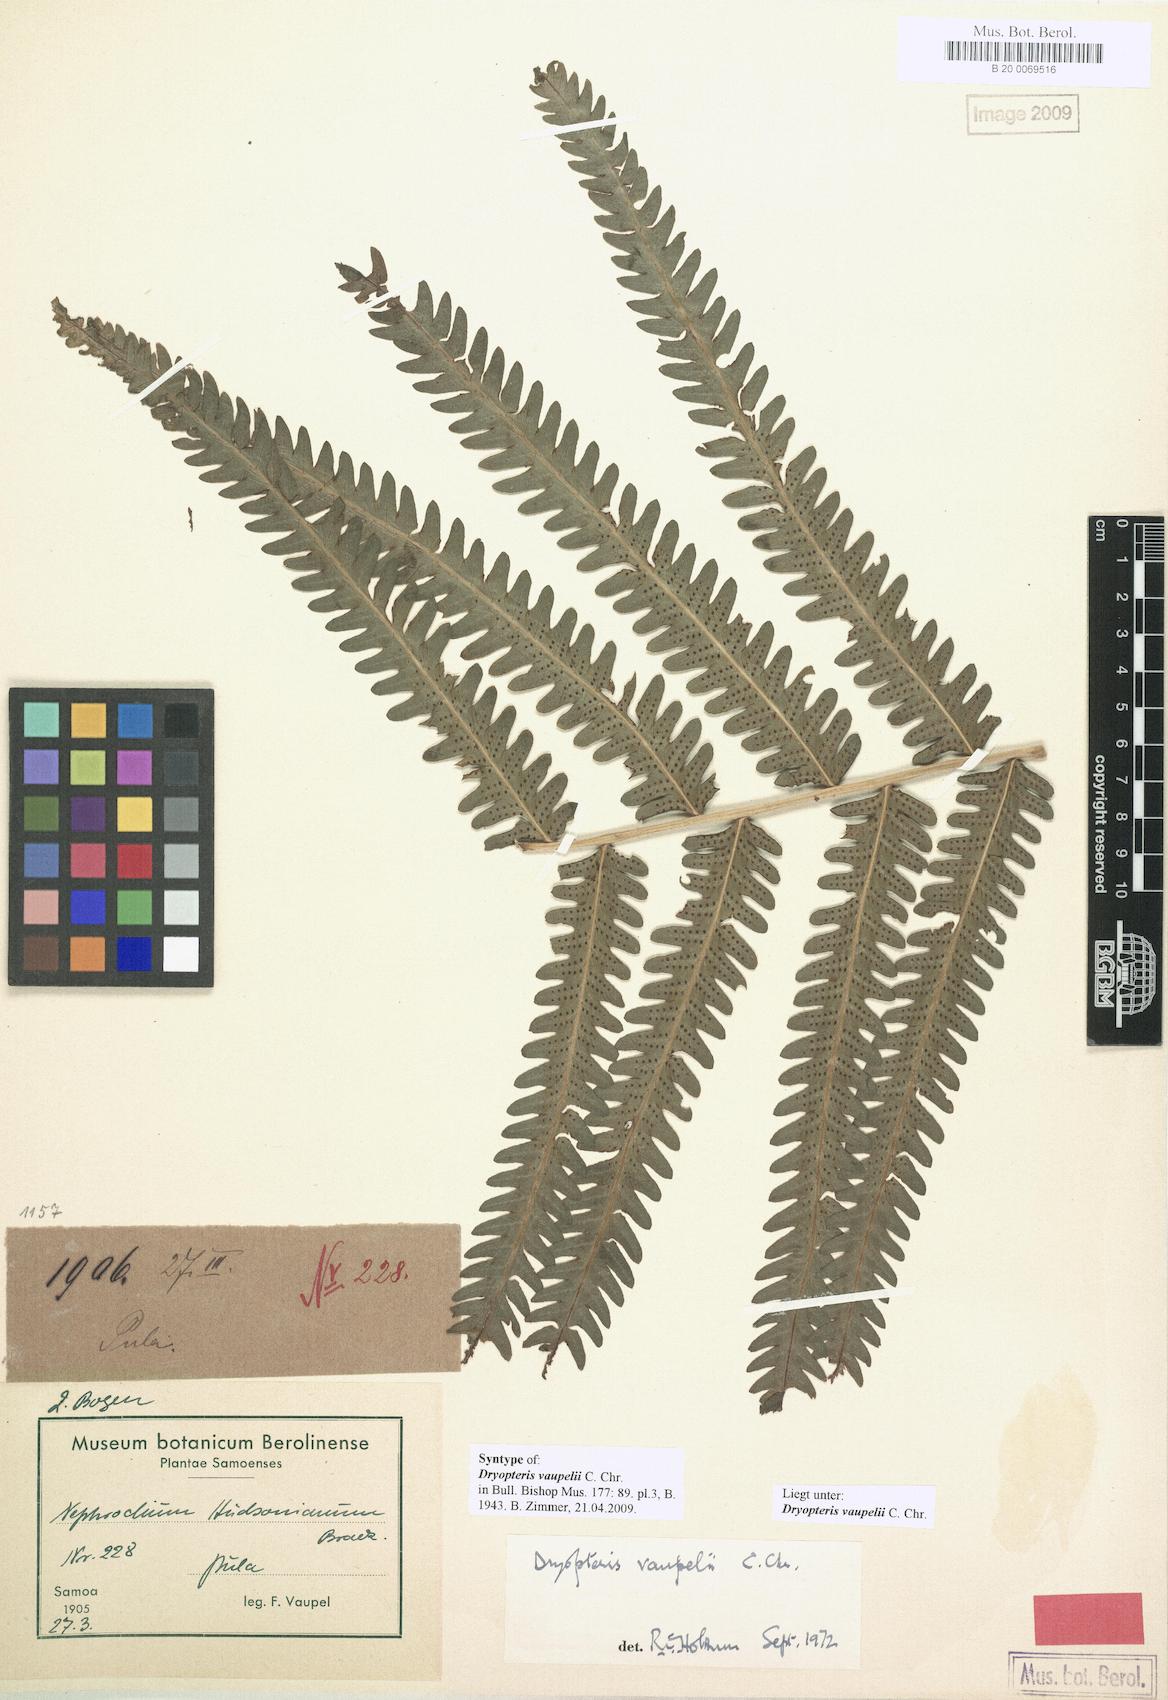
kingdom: Plantae
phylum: Tracheophyta
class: Polypodiopsida
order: Polypodiales
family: Thelypteridaceae
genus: Reholttumia
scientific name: Reholttumia vaupelii
